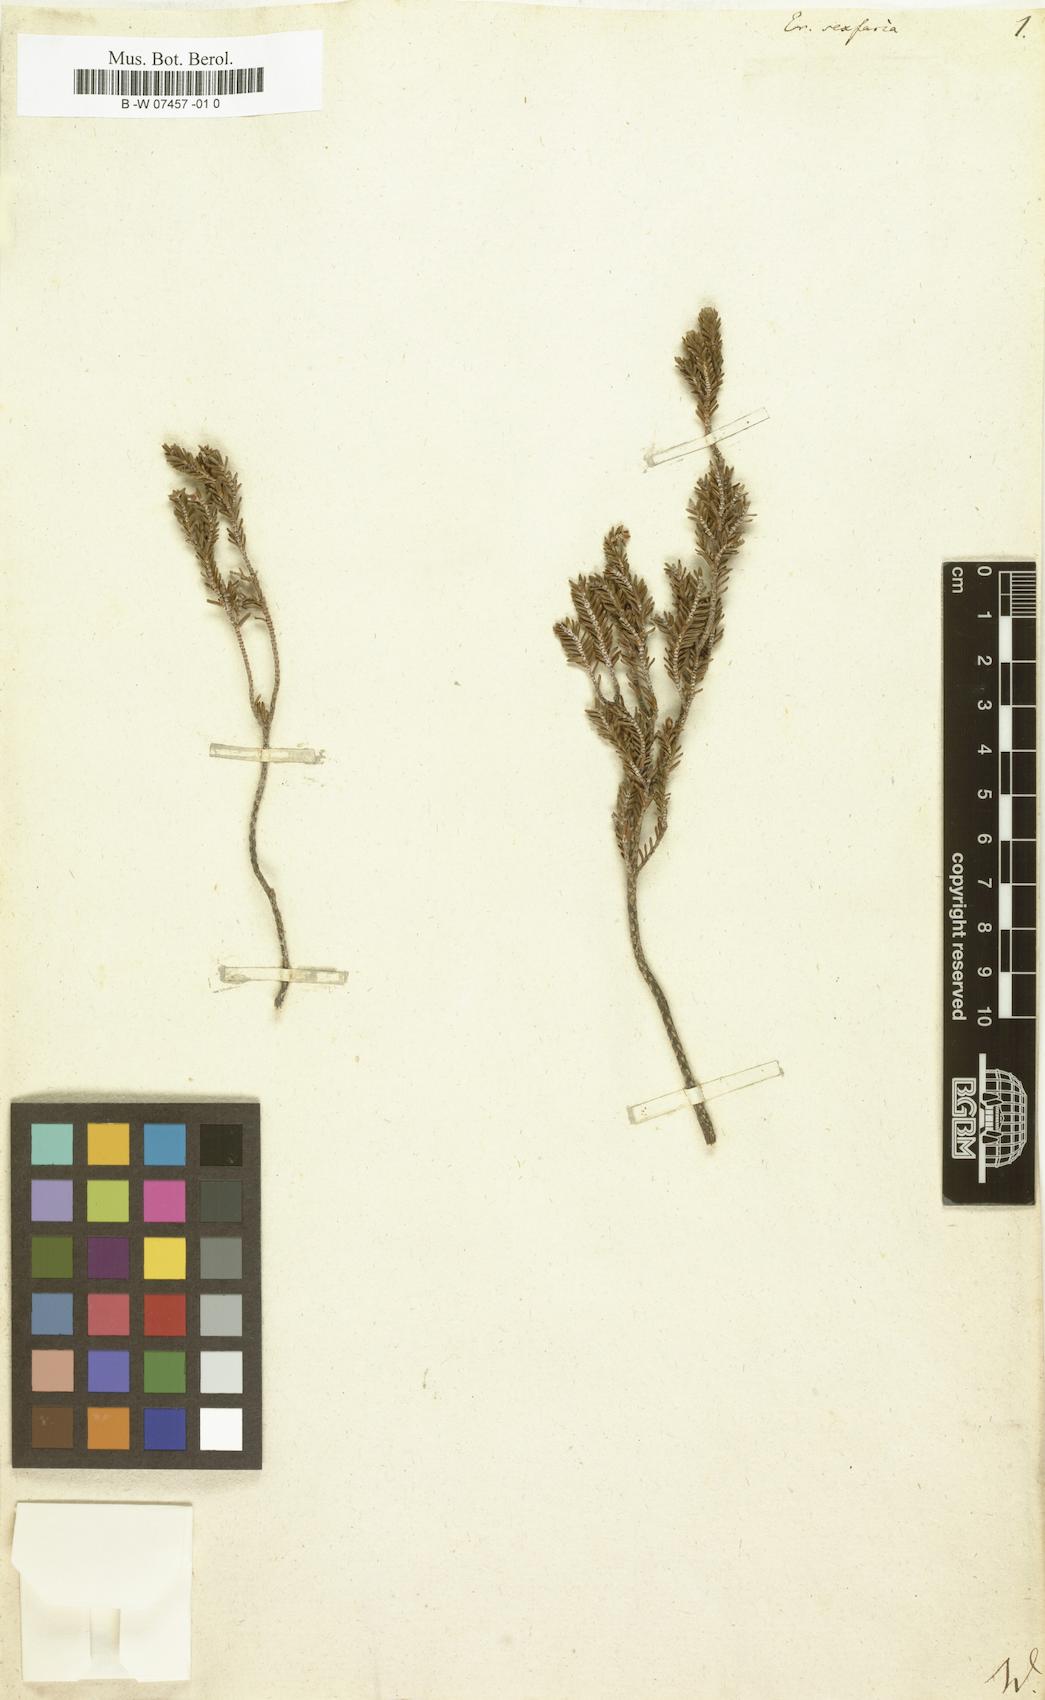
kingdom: Plantae
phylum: Tracheophyta
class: Magnoliopsida
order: Ericales
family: Ericaceae
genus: Erica
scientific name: Erica sexfaria
